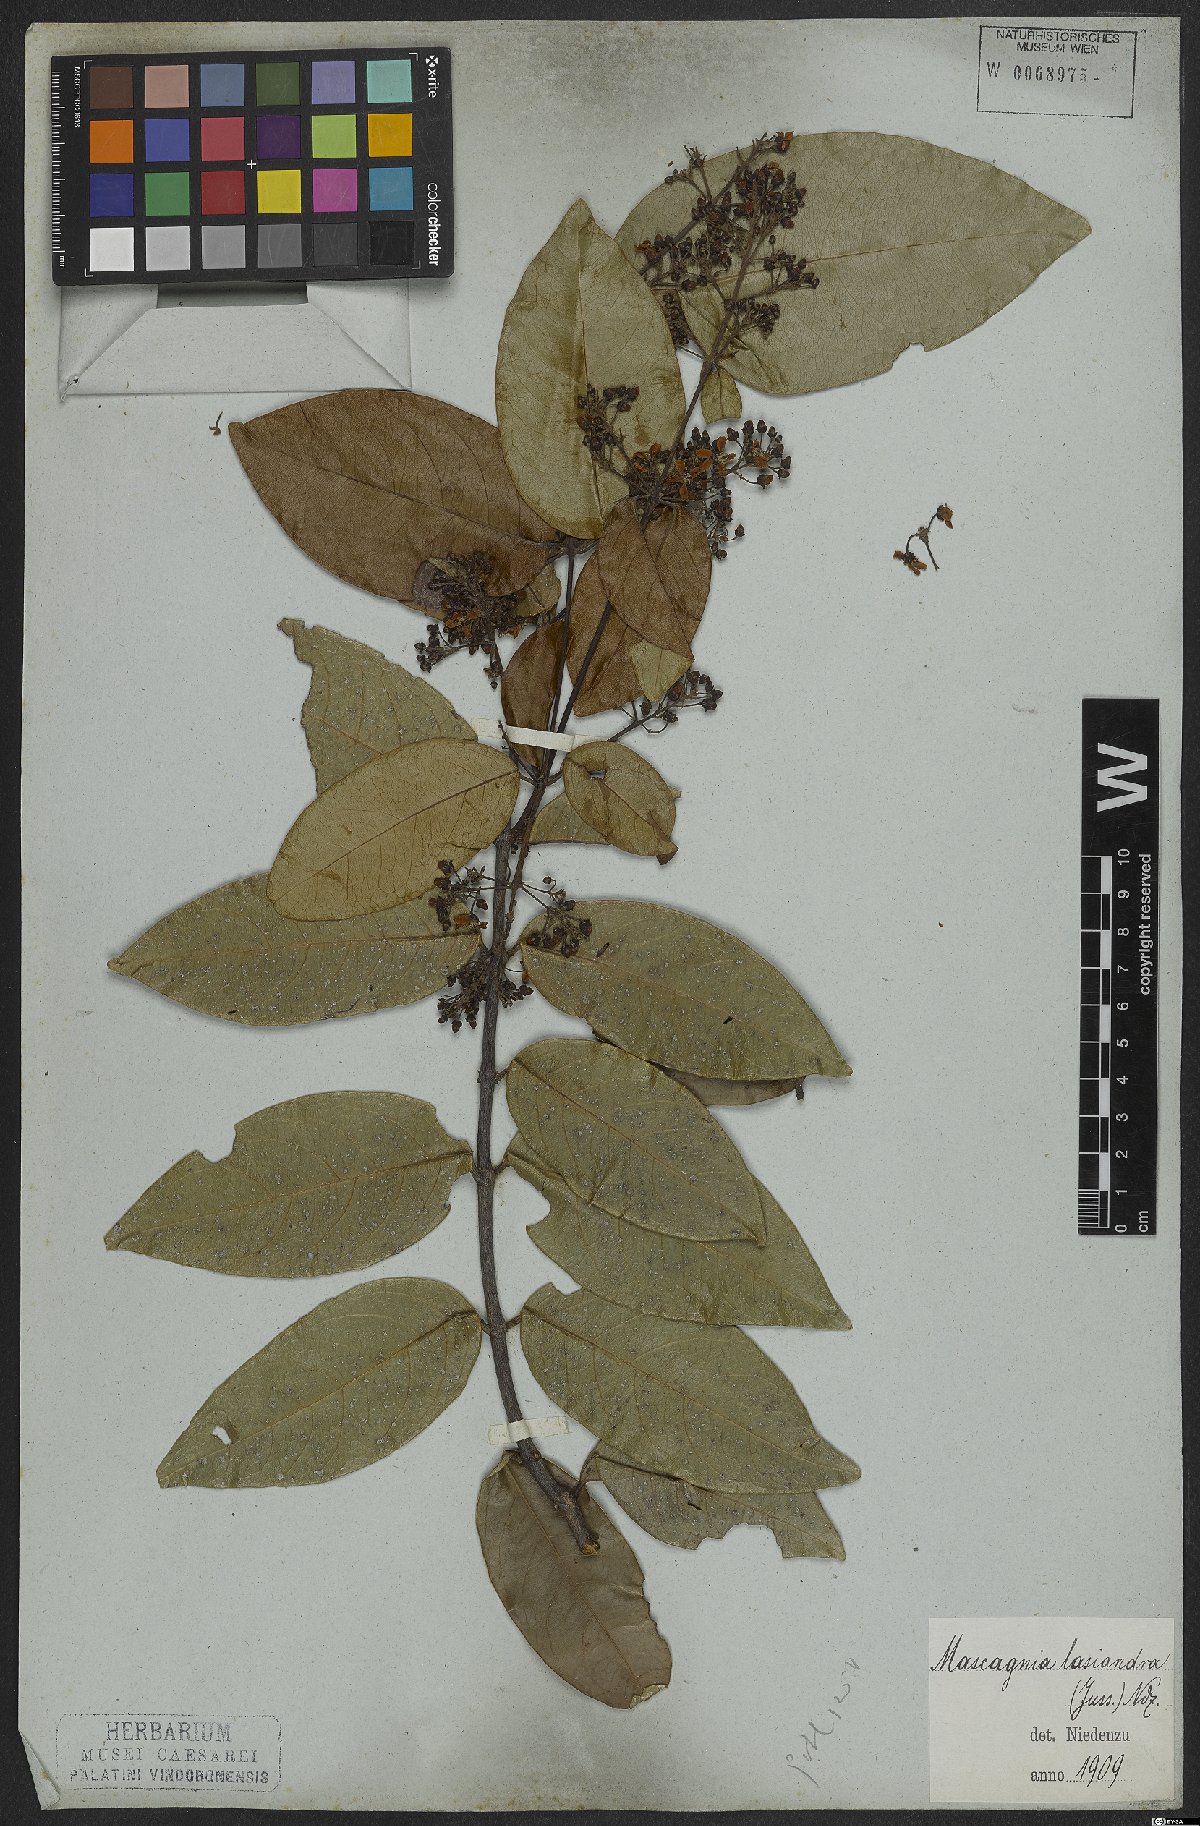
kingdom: Plantae
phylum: Tracheophyta
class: Magnoliopsida
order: Malpighiales
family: Malpighiaceae
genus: Niedenzuella
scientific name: Niedenzuella lasiandra
